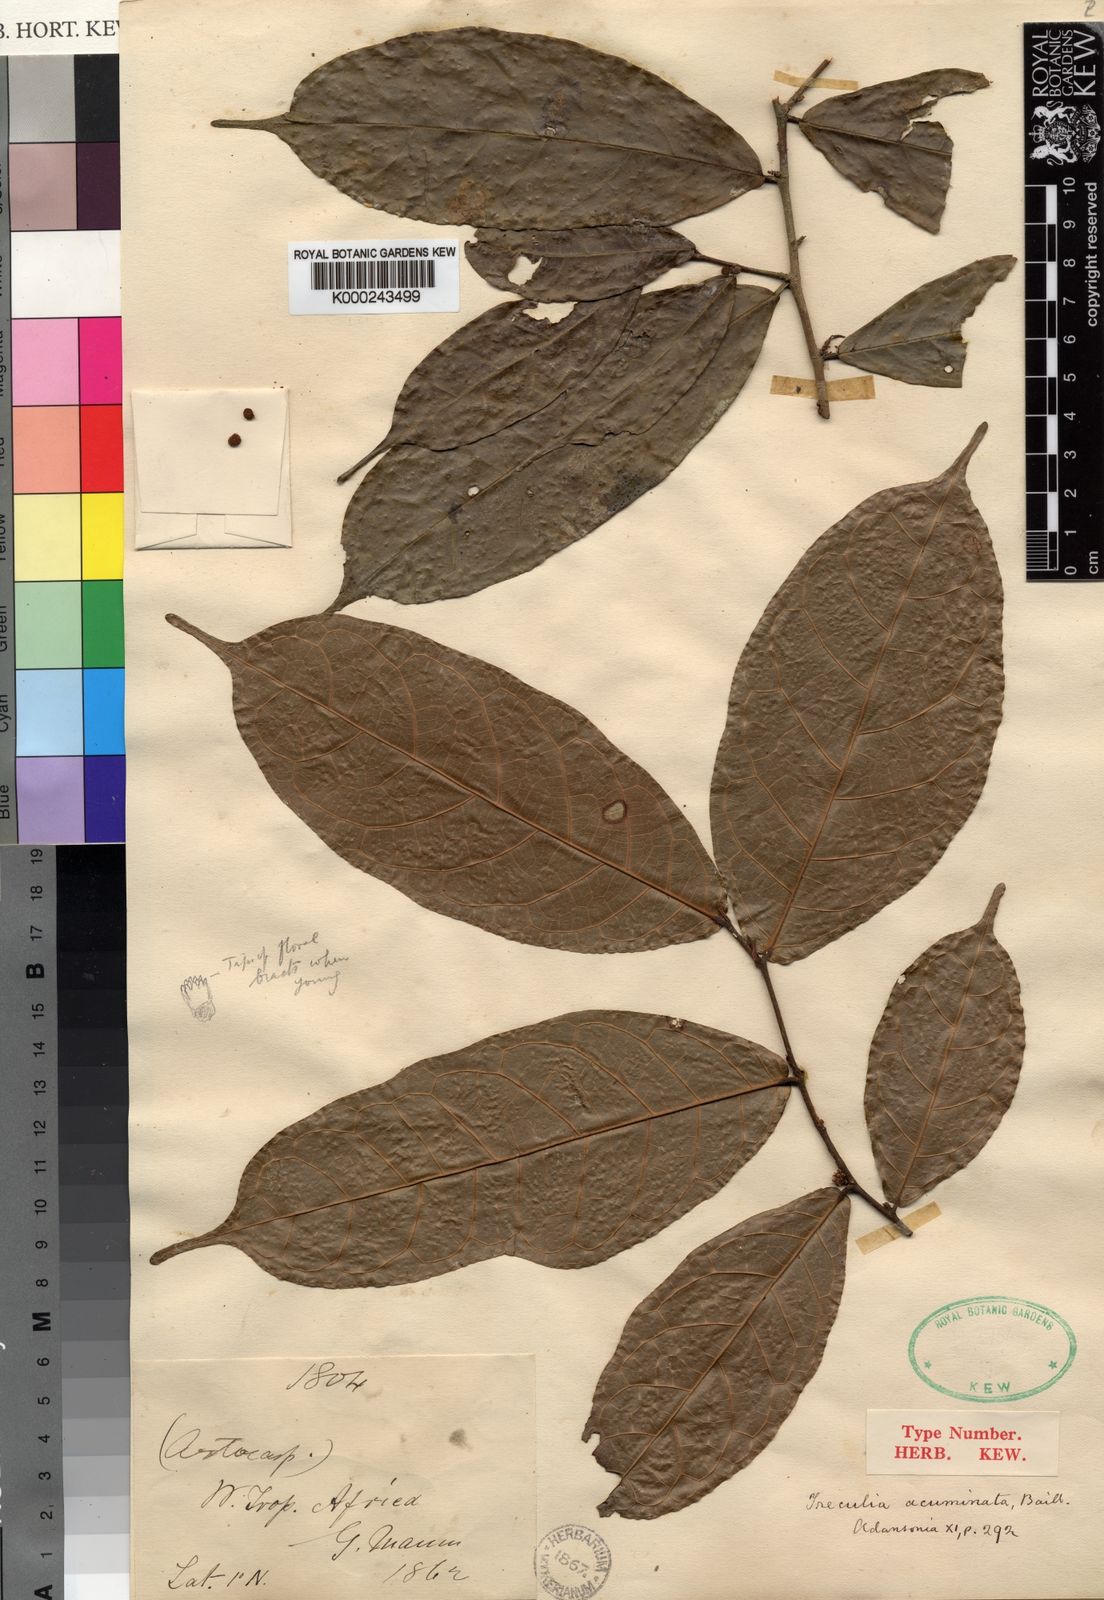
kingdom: Plantae
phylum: Tracheophyta
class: Magnoliopsida
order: Rosales
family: Moraceae
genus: Treculia
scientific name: Treculia acuminata
